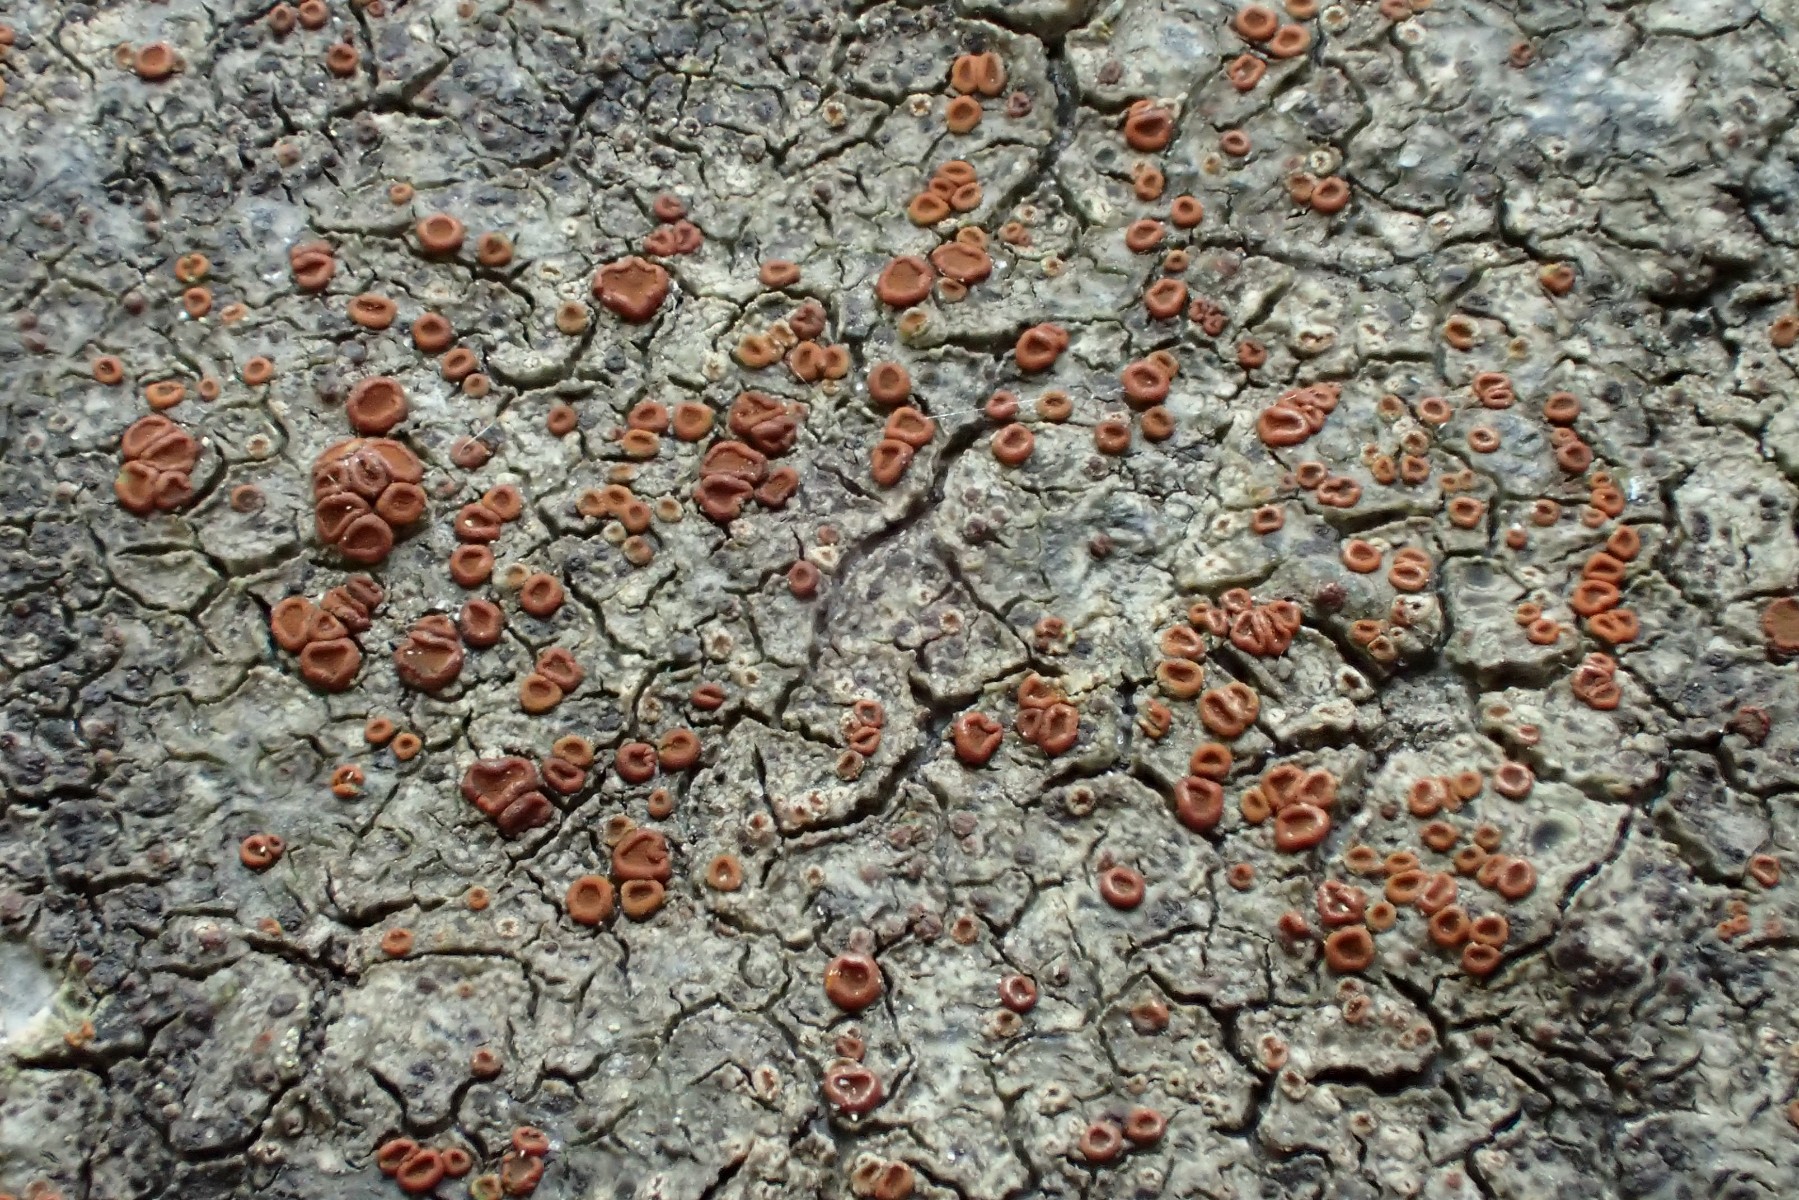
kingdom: Fungi
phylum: Ascomycota
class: Lecanoromycetes
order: Teloschistales
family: Teloschistaceae
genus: Blastenia
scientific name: Blastenia crenularia
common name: pyntelig orangelav
